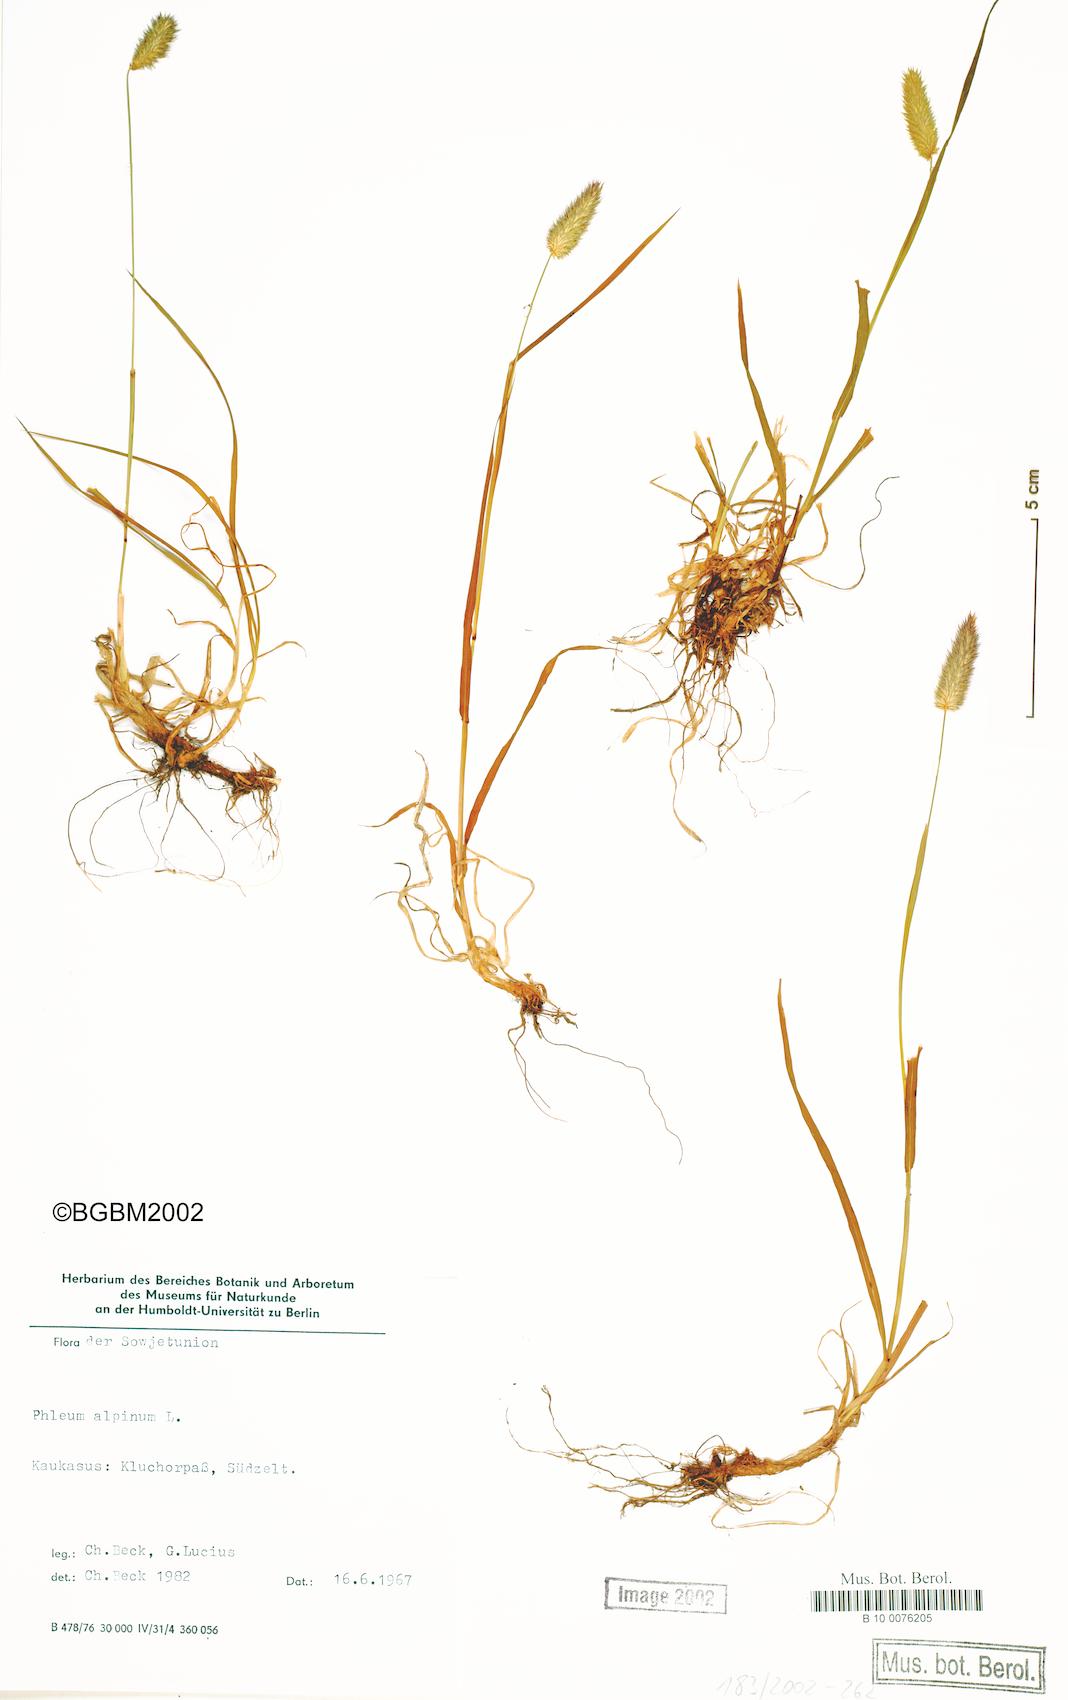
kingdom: Plantae
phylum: Tracheophyta
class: Liliopsida
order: Poales
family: Poaceae
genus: Phleum
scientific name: Phleum alpinum
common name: Alpine cat's-tail
